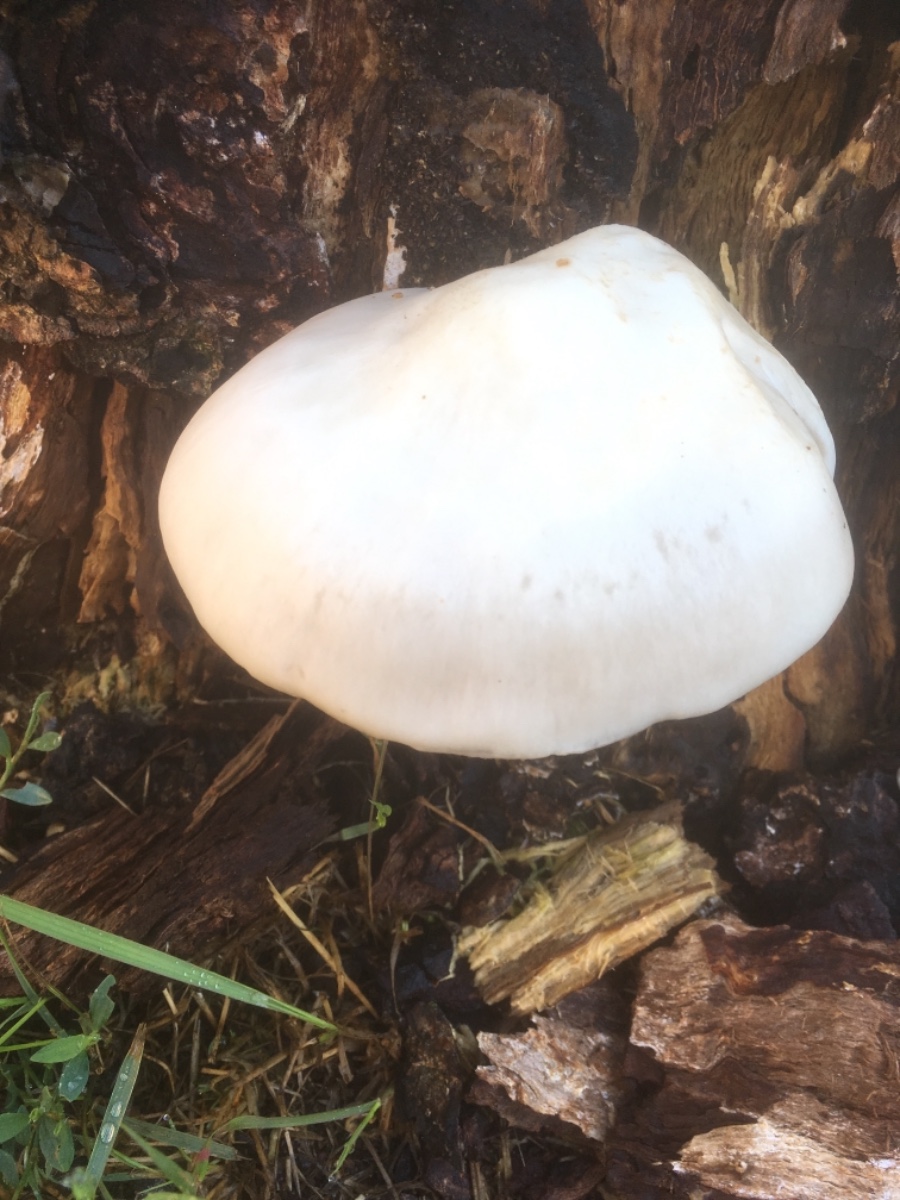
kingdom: Fungi
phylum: Basidiomycota
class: Agaricomycetes
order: Agaricales
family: Pluteaceae
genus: Pluteus
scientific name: Pluteus petasatus
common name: savsmulds-skærmhat
